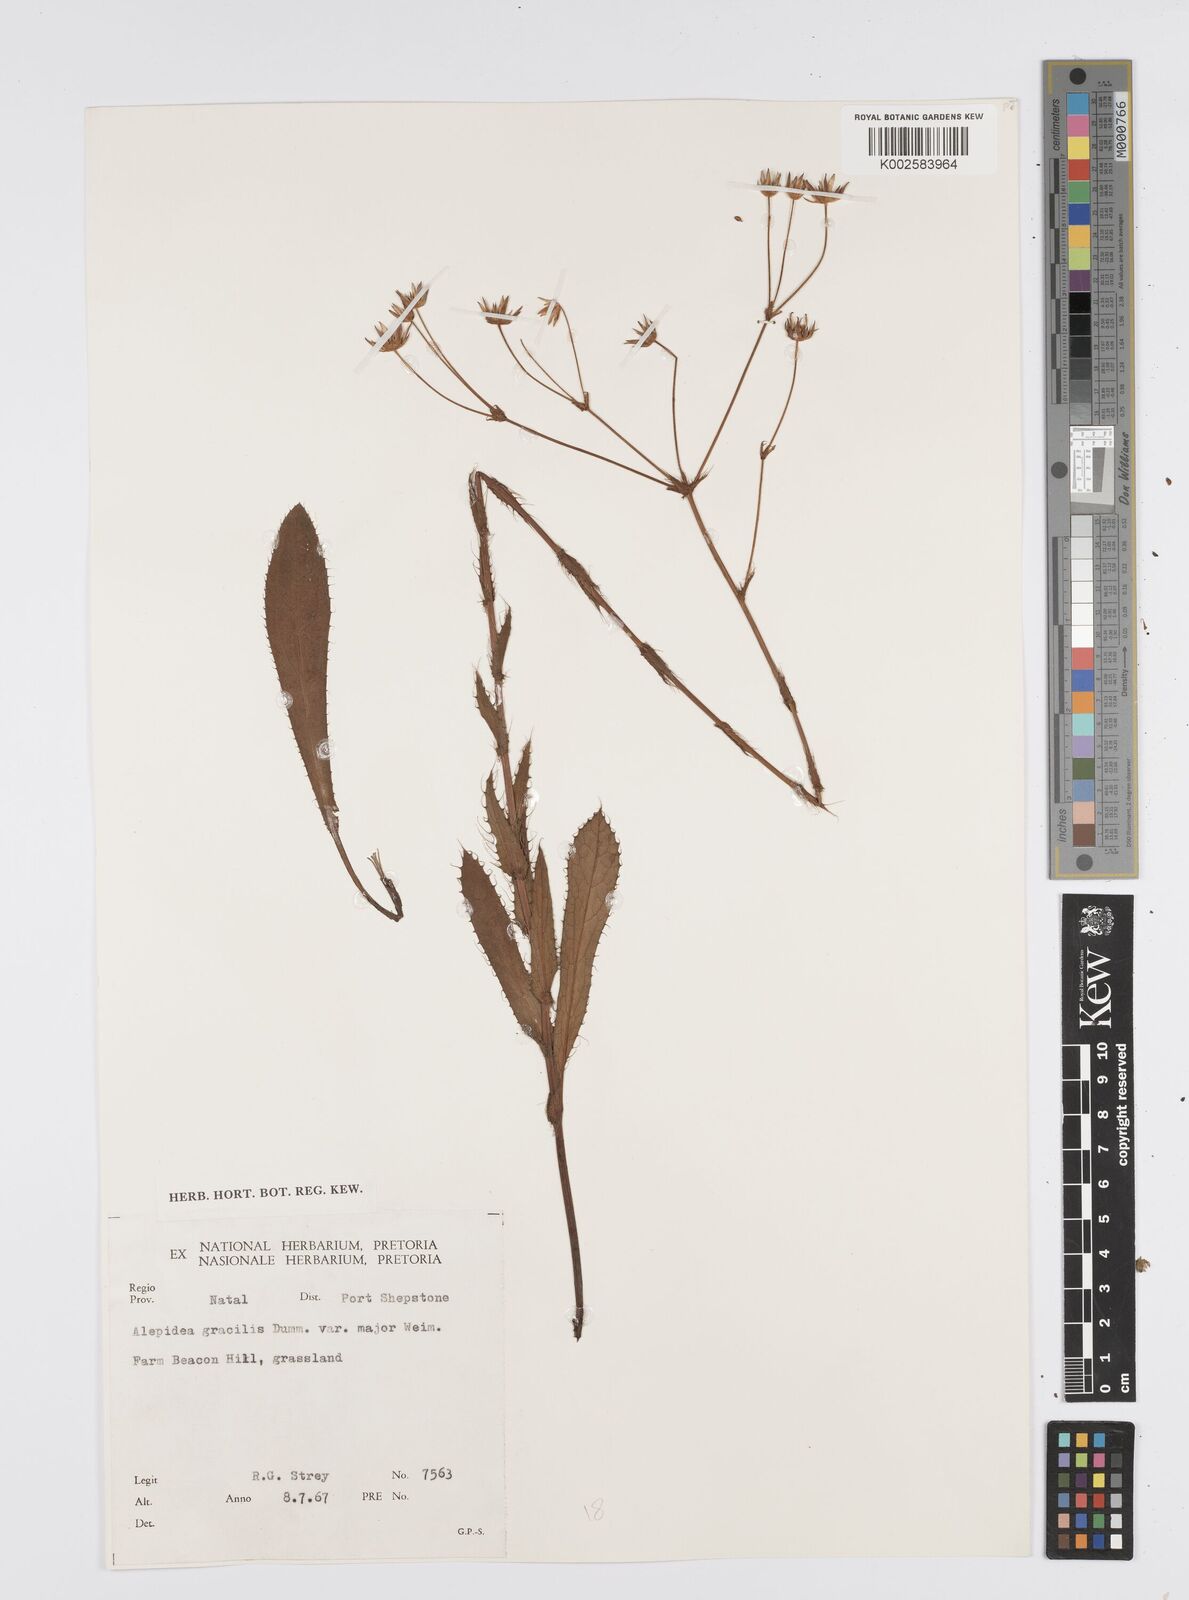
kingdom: Plantae
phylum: Tracheophyta
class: Magnoliopsida
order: Apiales
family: Apiaceae
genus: Alepidea
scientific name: Alepidea
